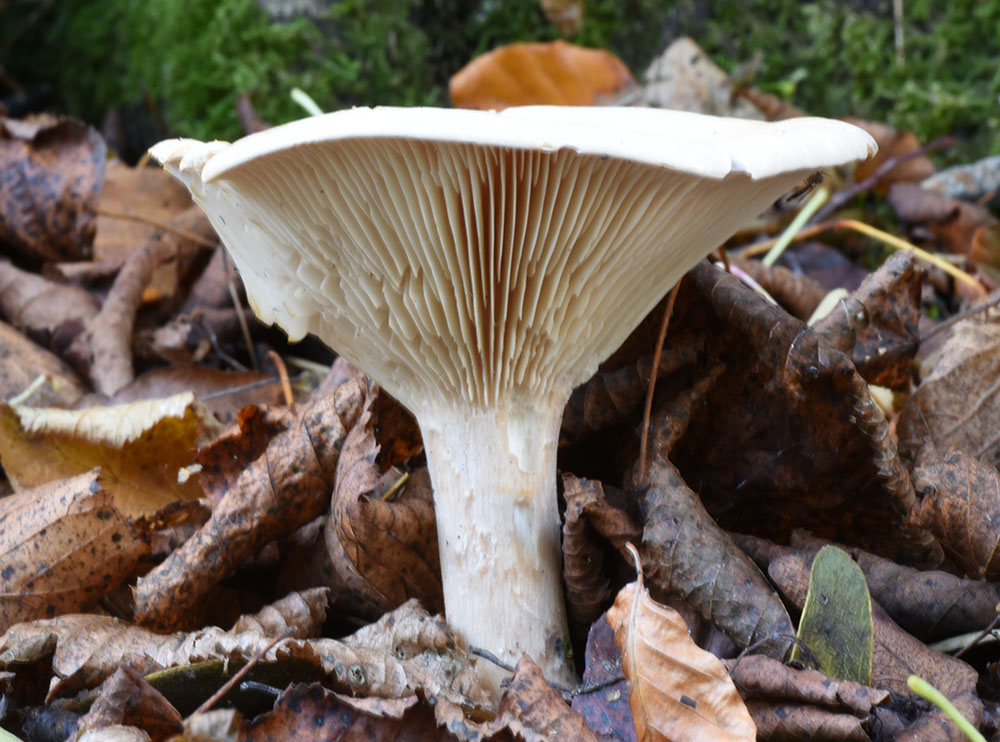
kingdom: Fungi
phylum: Basidiomycota
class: Agaricomycetes
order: Agaricales
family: Tricholomataceae
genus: Infundibulicybe
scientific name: Infundibulicybe geotropa
